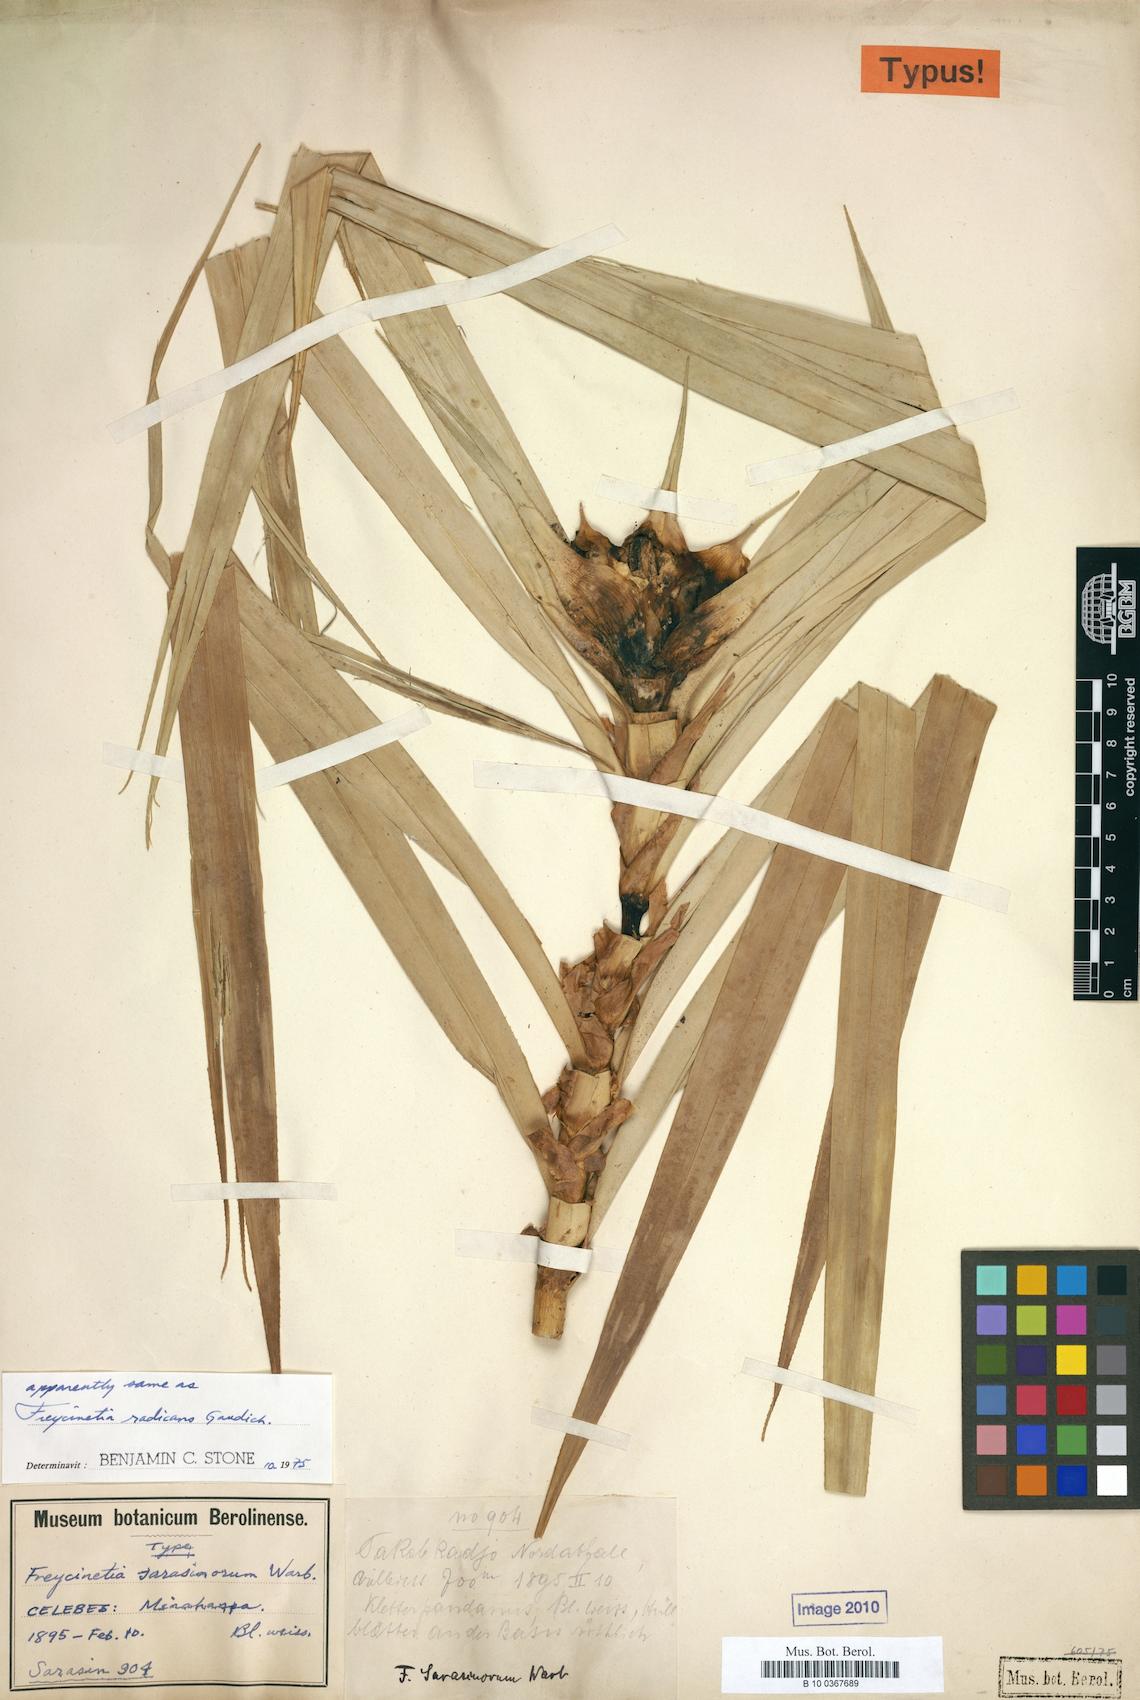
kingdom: Plantae
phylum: Tracheophyta
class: Liliopsida
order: Pandanales
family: Pandanaceae
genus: Freycinetia
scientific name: Freycinetia sarasinorum
